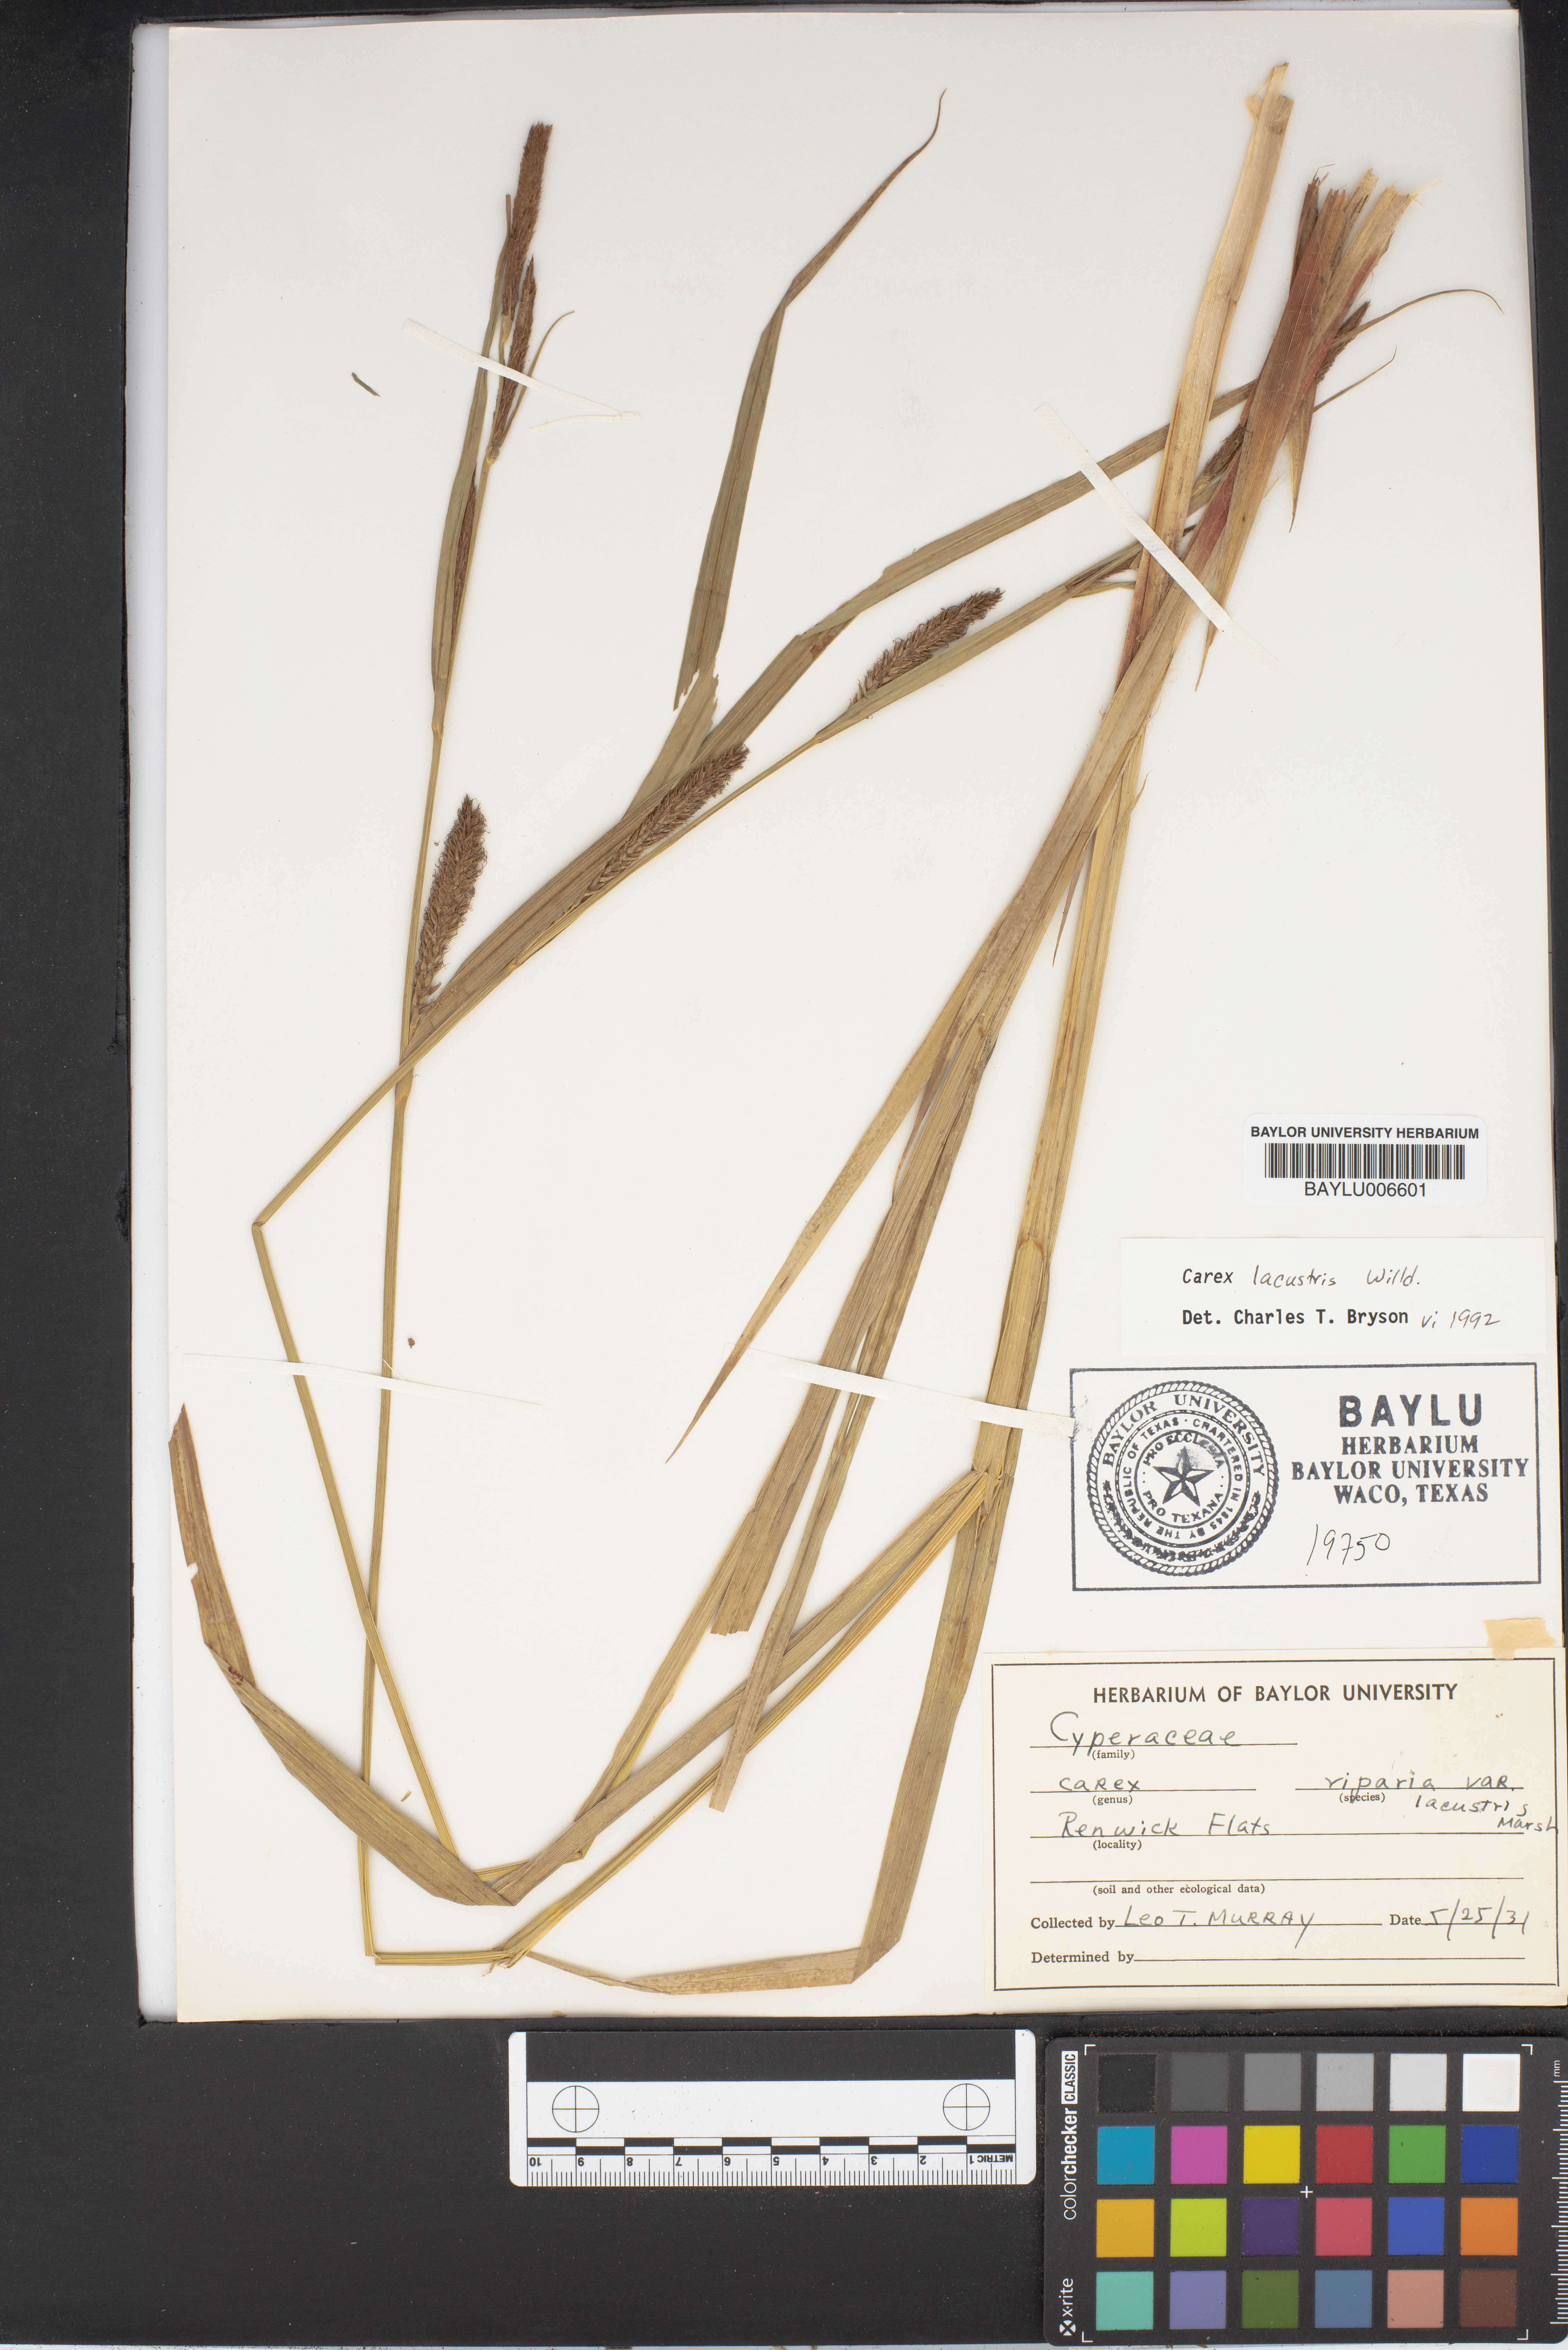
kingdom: Plantae
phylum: Tracheophyta
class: Liliopsida
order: Poales
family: Cyperaceae
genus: Carex
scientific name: Carex lacustris
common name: Common lake sedge
